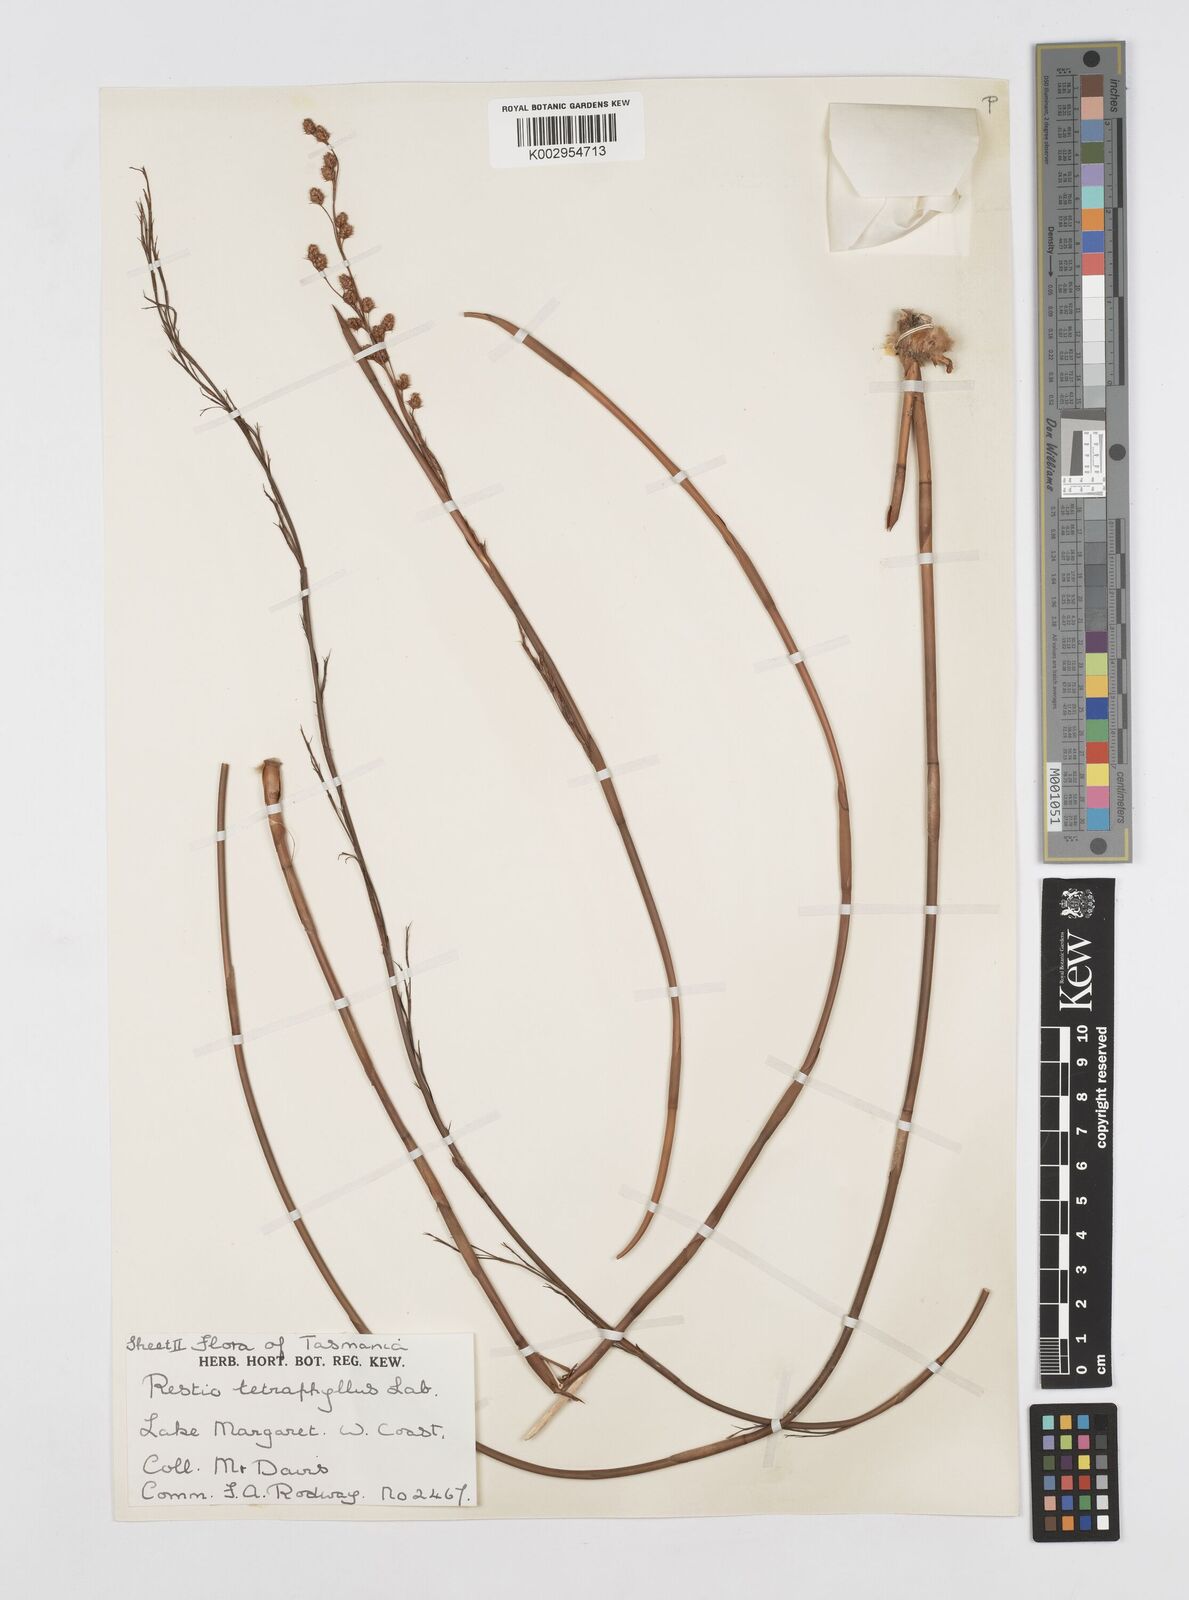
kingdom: Plantae
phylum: Tracheophyta
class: Liliopsida
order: Poales
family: Restionaceae
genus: Baloskion
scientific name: Baloskion tetraphyllum
